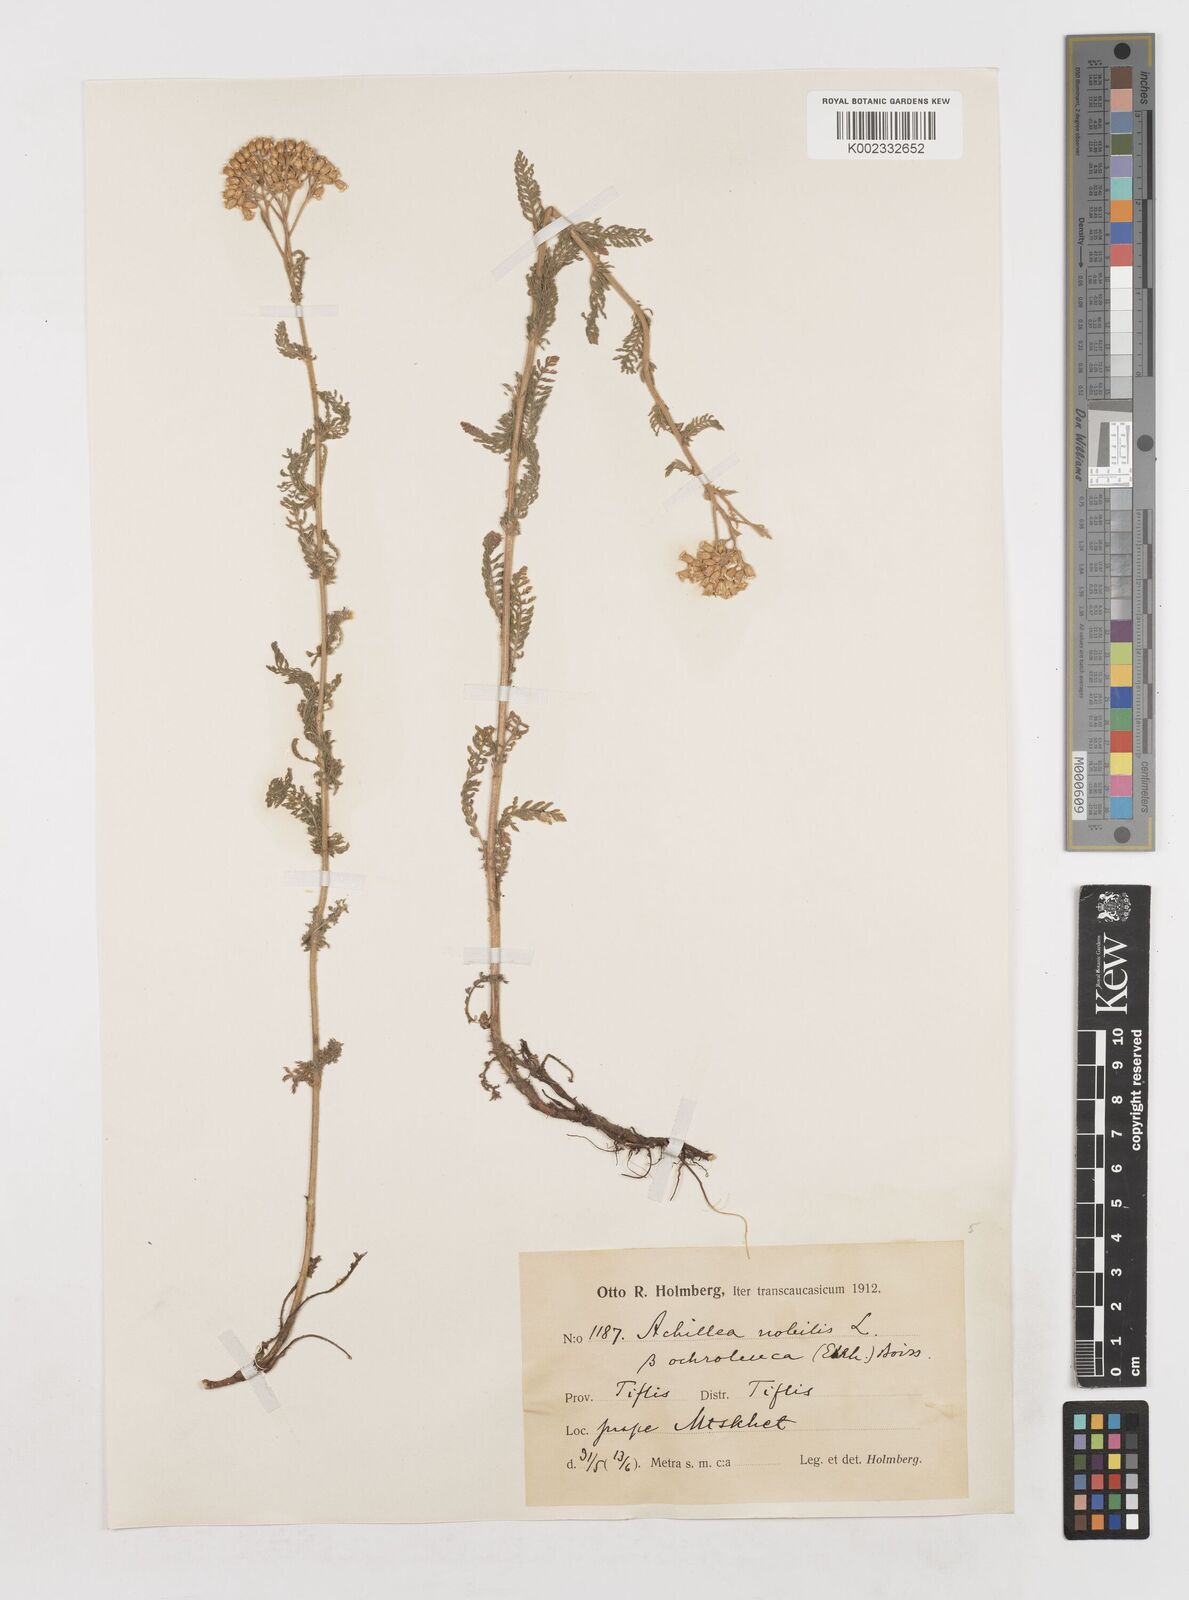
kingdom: Plantae
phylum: Tracheophyta
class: Magnoliopsida
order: Asterales
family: Asteraceae
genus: Achillea
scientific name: Achillea nobilis
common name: Noble yarrow
